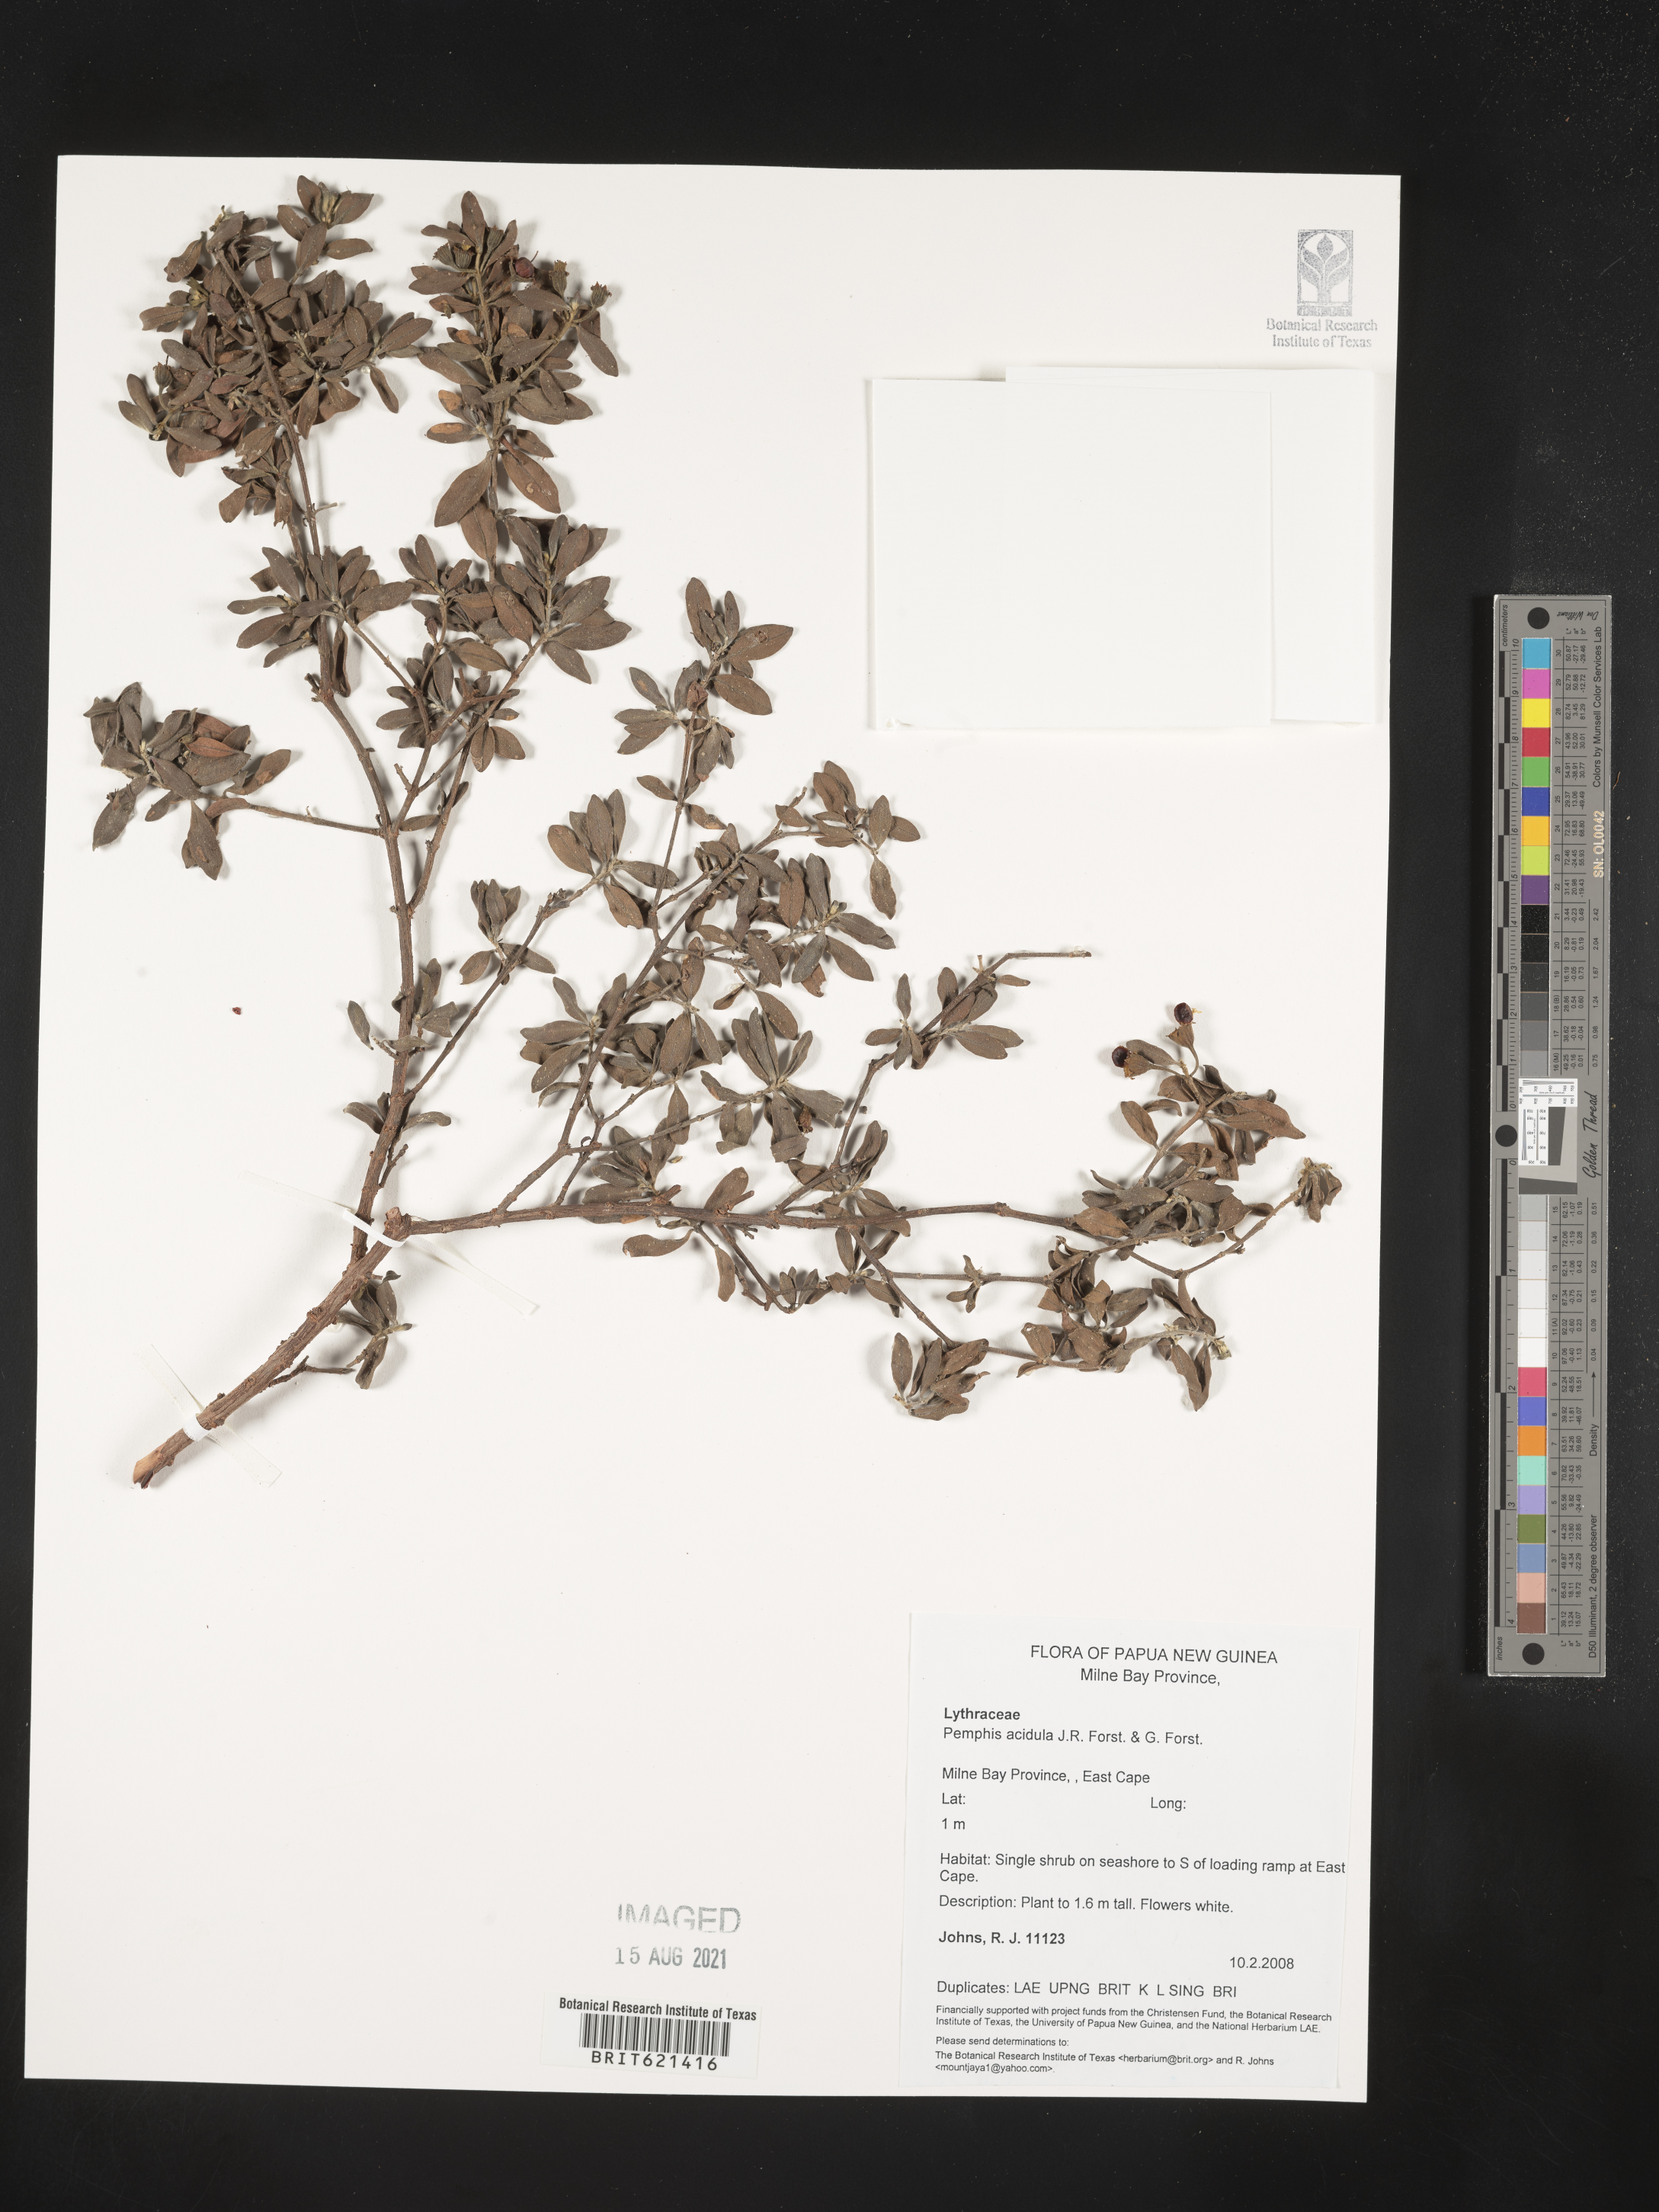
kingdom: Plantae
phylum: Tracheophyta
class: Magnoliopsida
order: Myrtales
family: Lythraceae
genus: Pemphis
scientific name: Pemphis acidula
